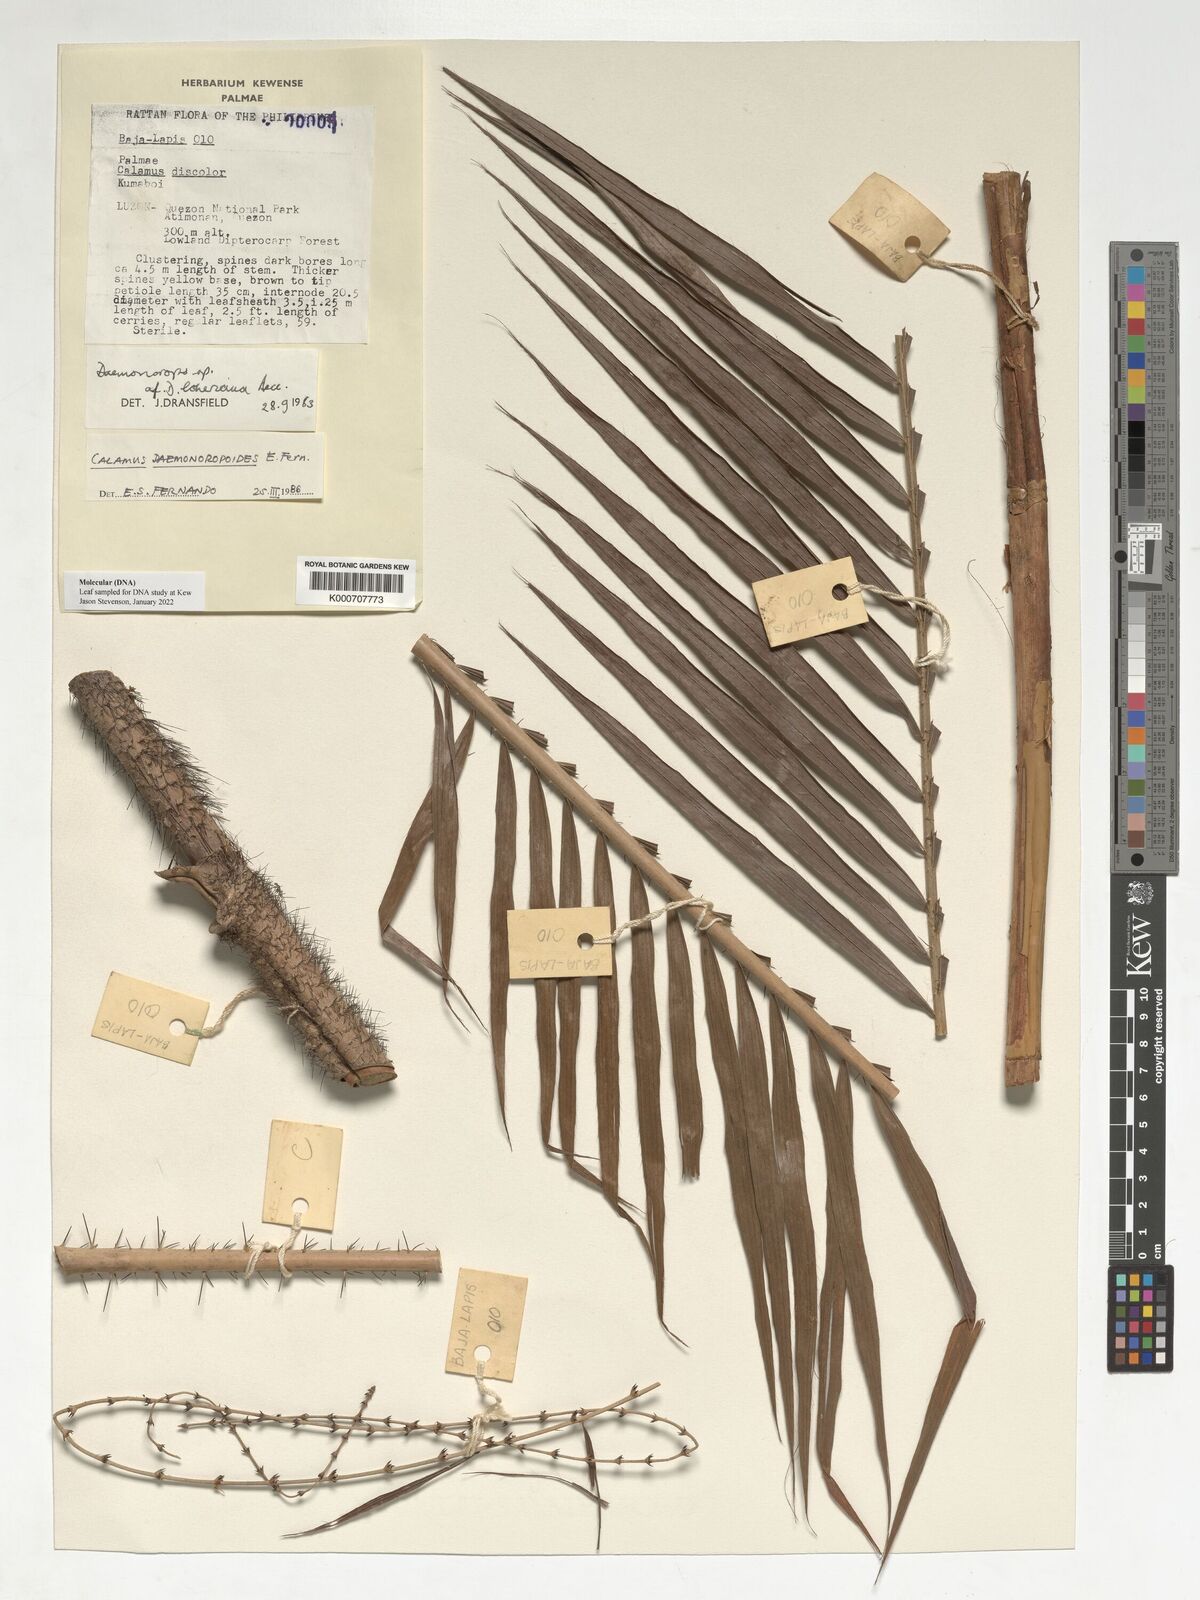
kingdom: Plantae
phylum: Tracheophyta
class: Liliopsida
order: Arecales
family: Arecaceae
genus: Calamus
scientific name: Calamus erinaceus
